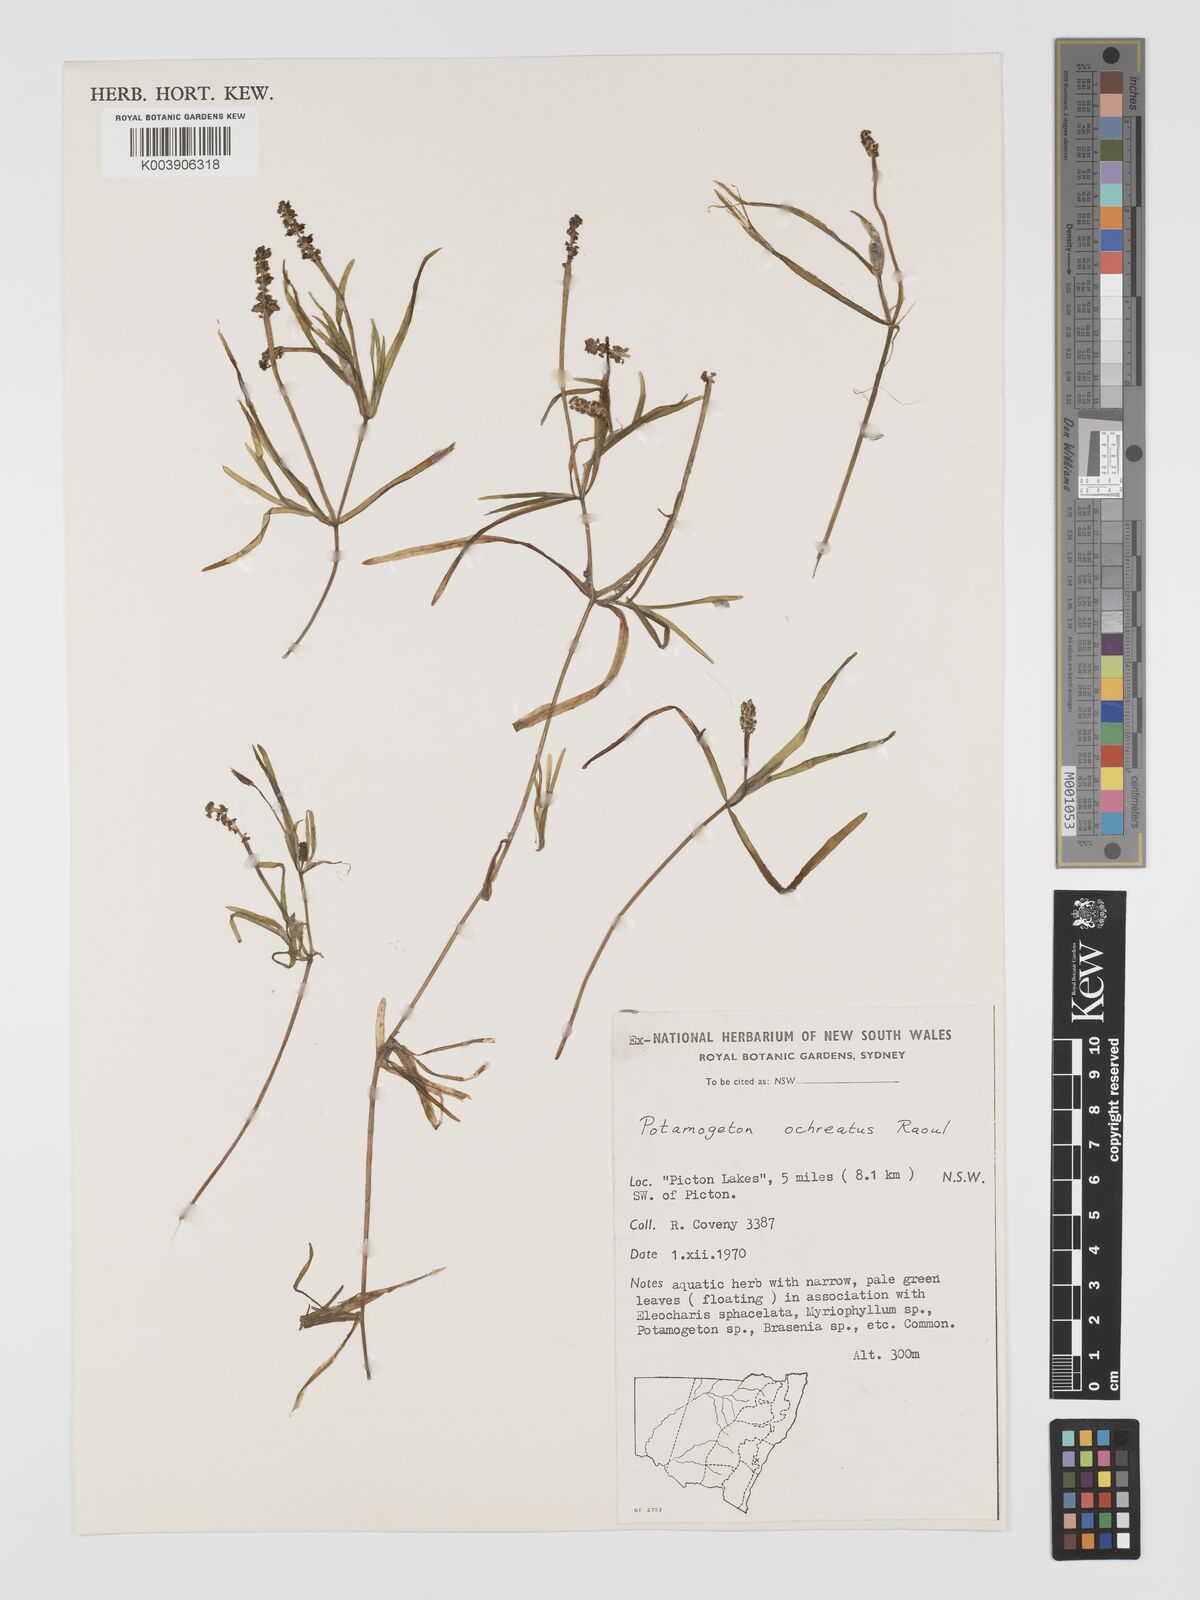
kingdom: Plantae
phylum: Tracheophyta
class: Liliopsida
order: Alismatales
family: Potamogetonaceae
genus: Potamogeton
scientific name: Potamogeton ochreatus
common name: Blunt pondweed
